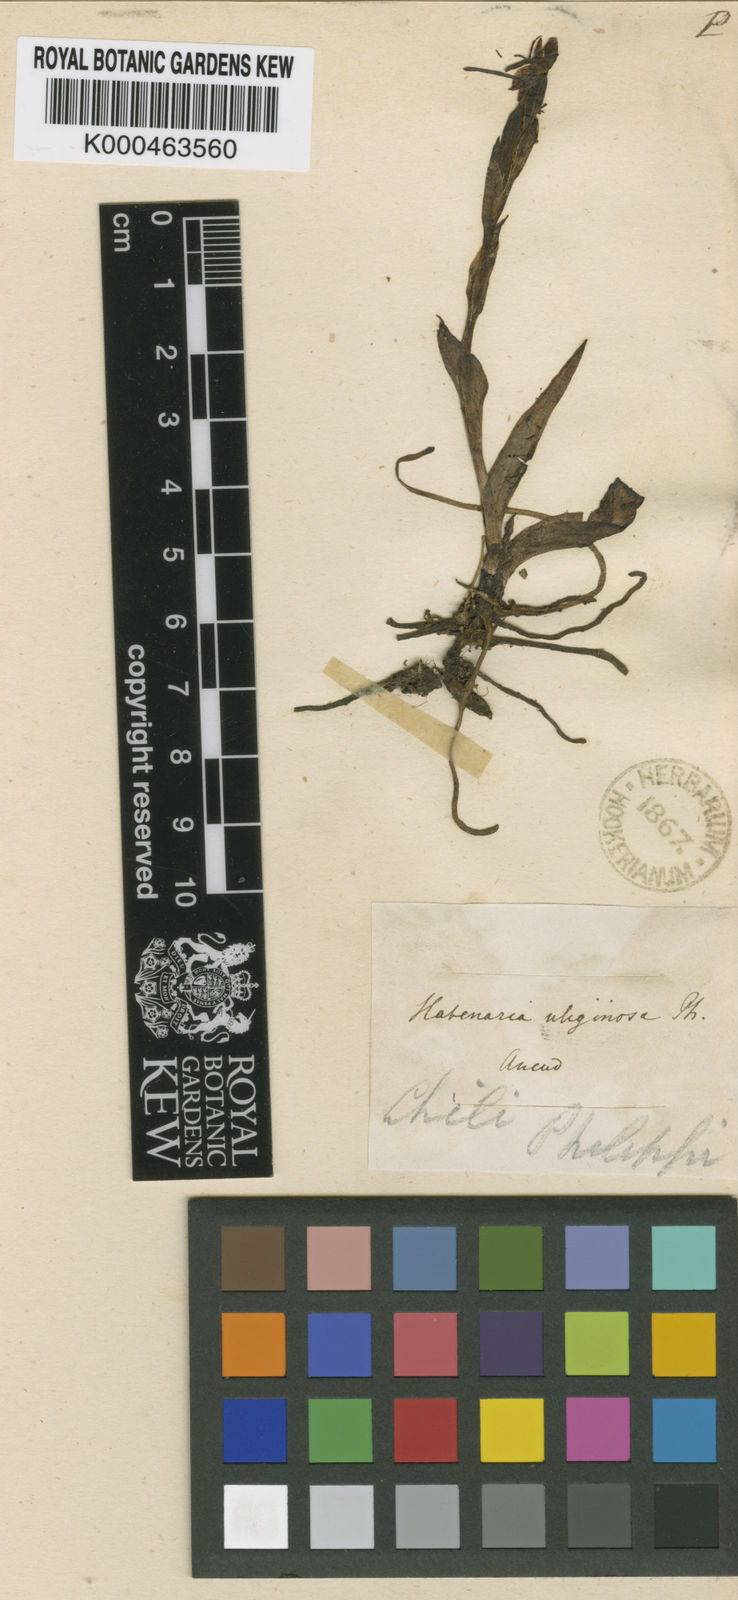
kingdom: Plantae
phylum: Tracheophyta
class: Liliopsida
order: Asparagales
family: Orchidaceae
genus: Habenaria
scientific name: Habenaria uliginosa
